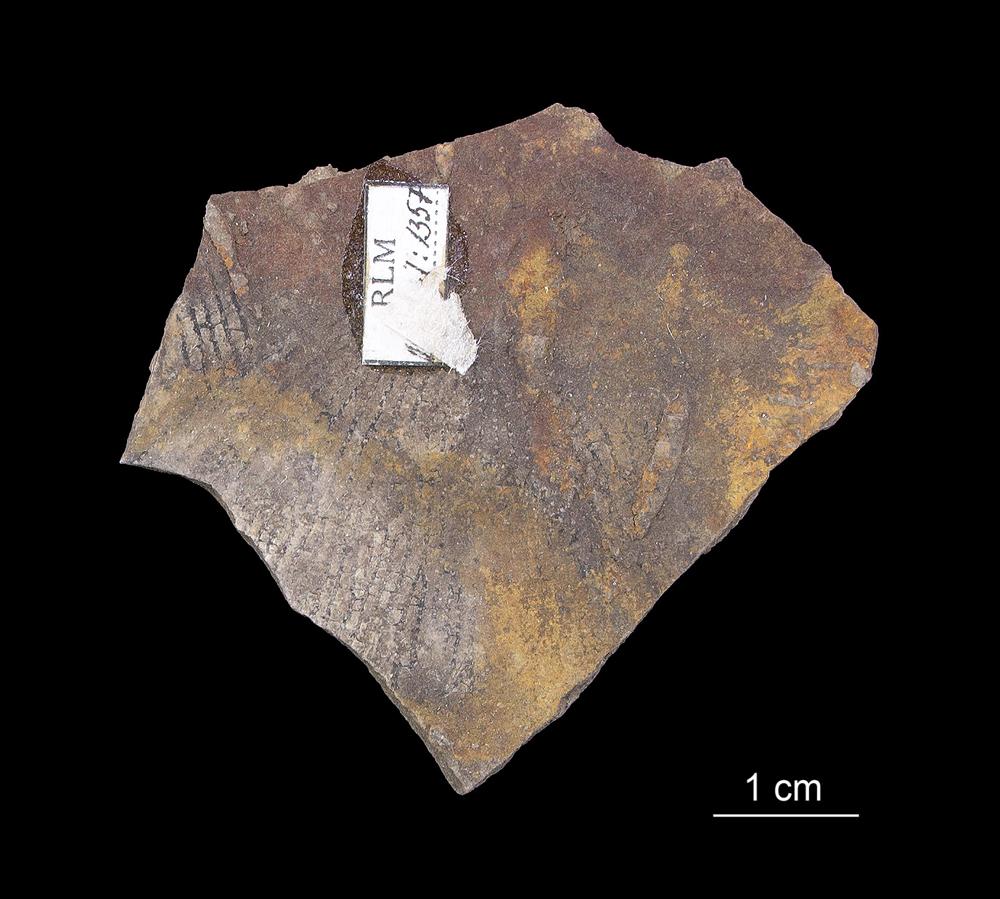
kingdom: Animalia
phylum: Hemichordata
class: Pterobranchia
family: Anisograptidae
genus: Rhabdinopora
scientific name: Rhabdinopora Gorgonia flabelliformis
